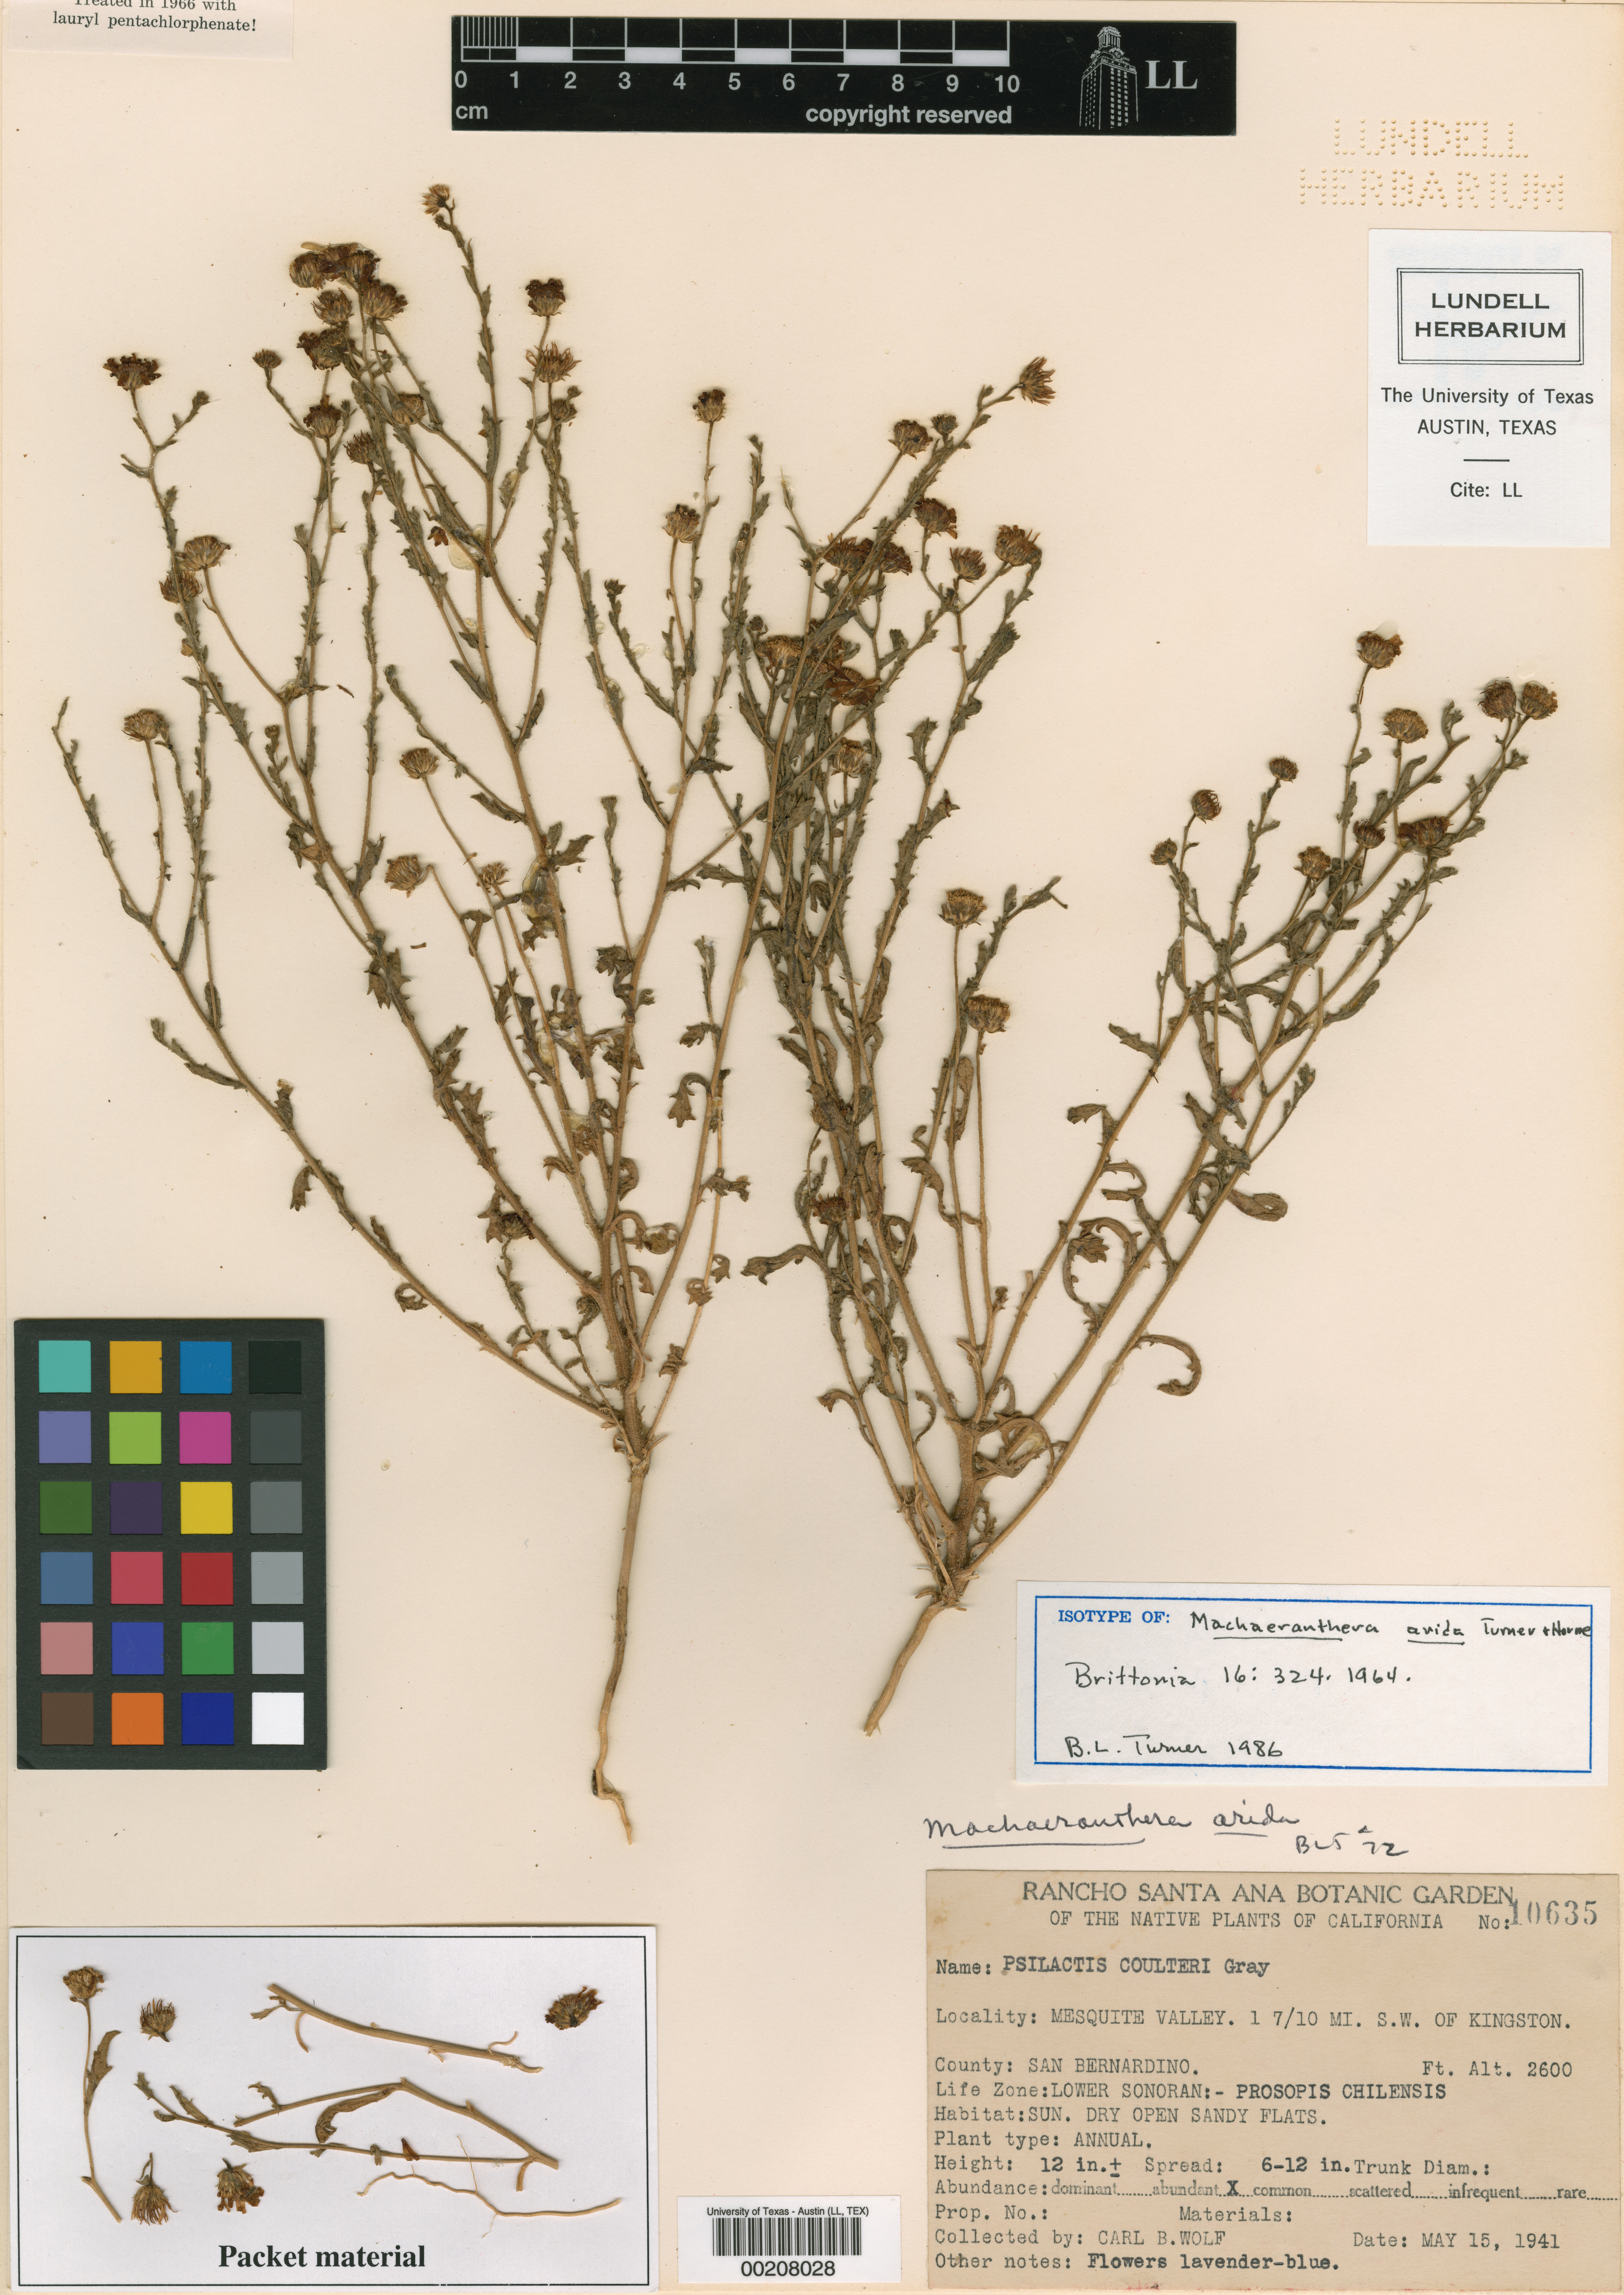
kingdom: Plantae
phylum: Tracheophyta
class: Magnoliopsida
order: Asterales
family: Asteraceae
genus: Leucosyris
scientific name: Leucosyris arida
